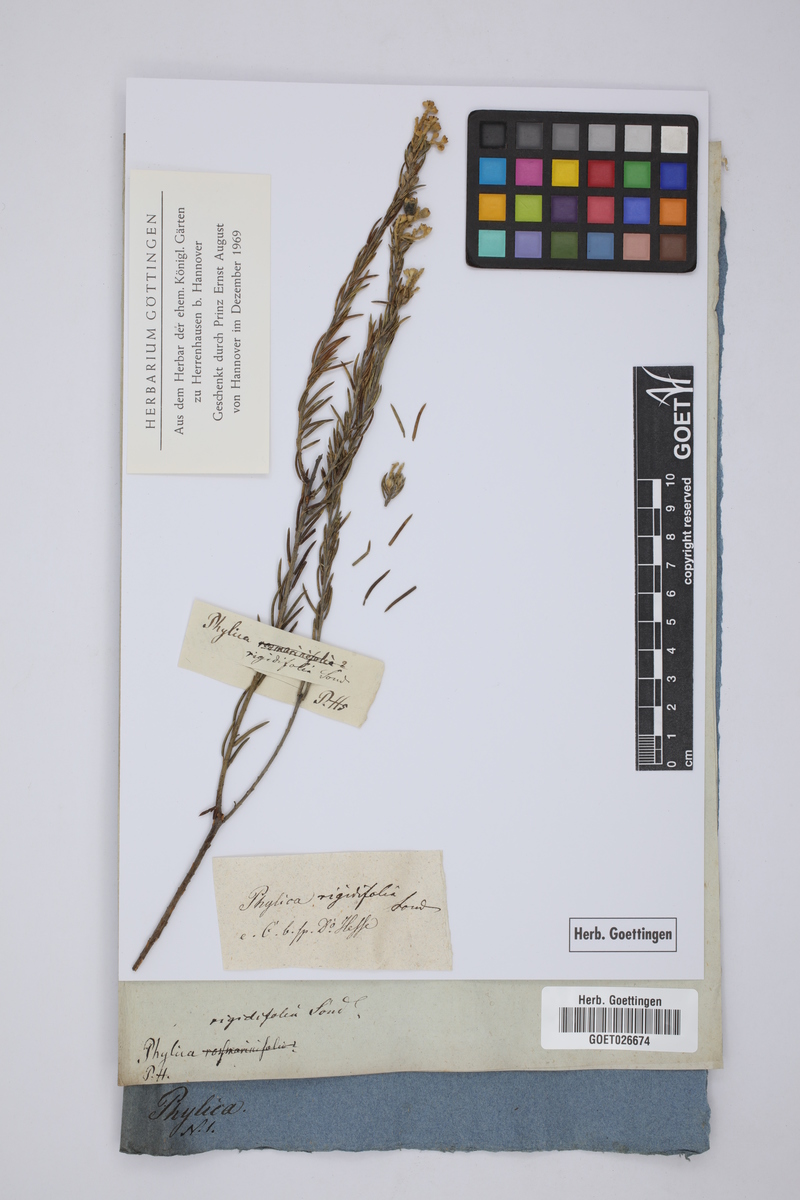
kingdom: Plantae
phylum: Tracheophyta
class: Magnoliopsida
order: Rosales
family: Rhamnaceae
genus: Phylica
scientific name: Phylica rigidifolia
